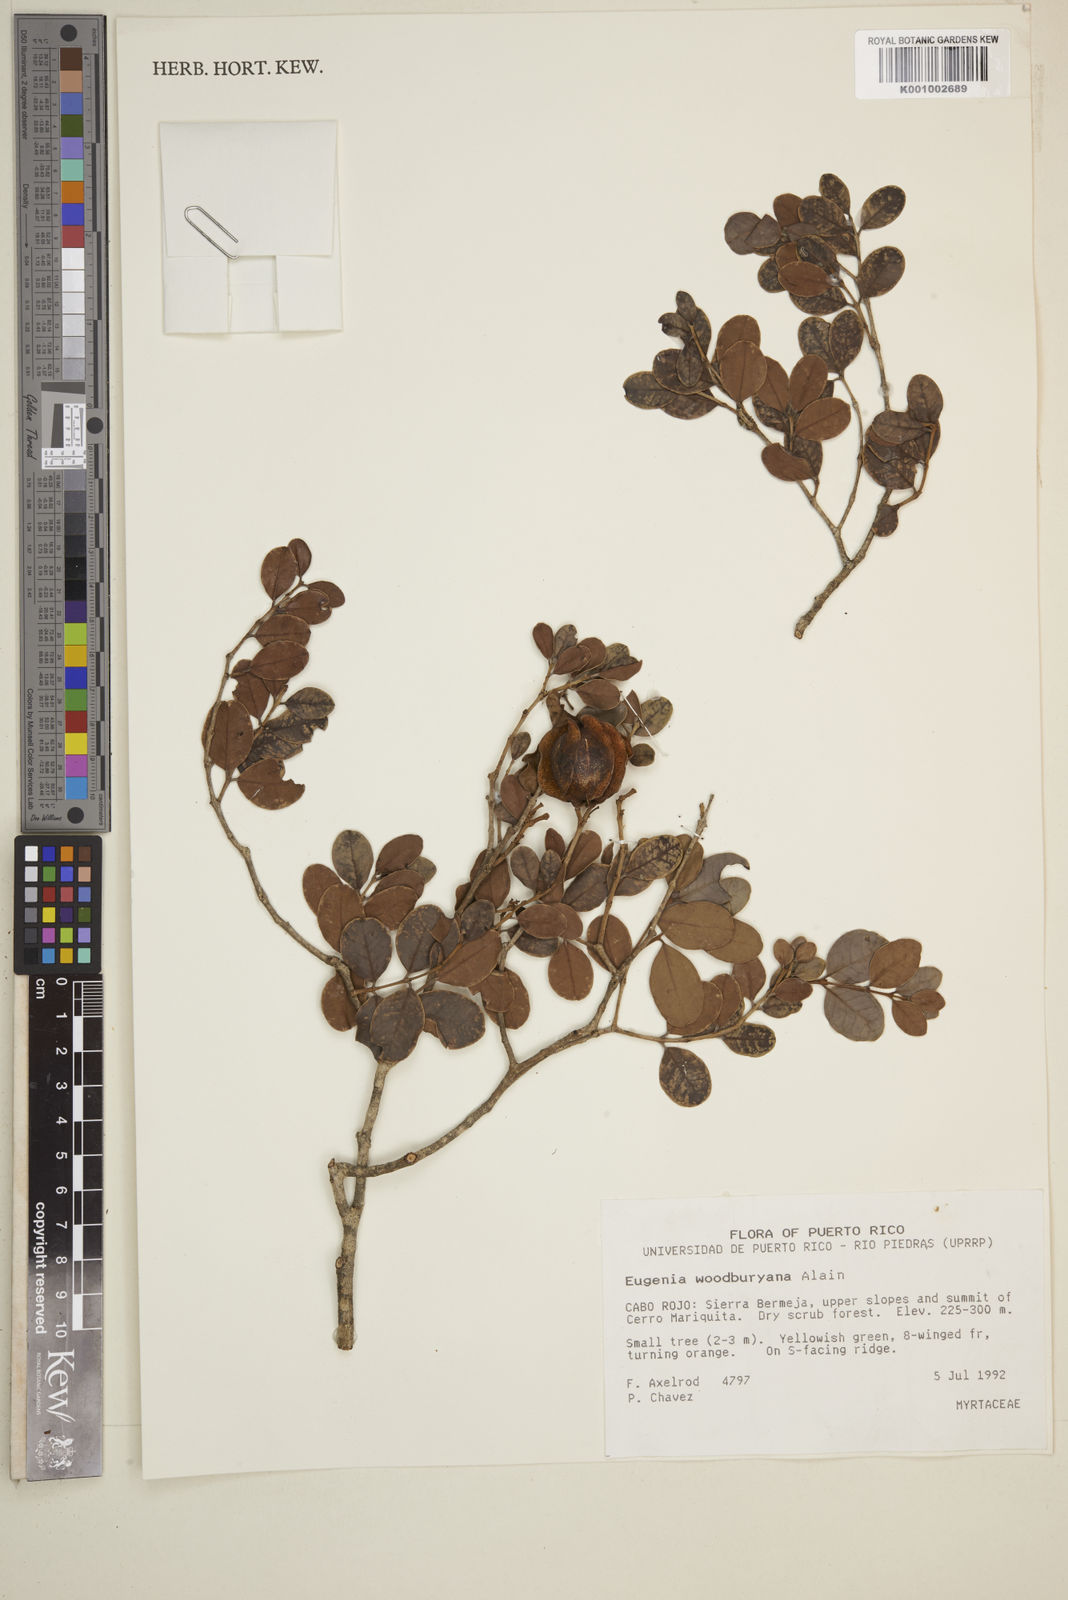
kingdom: Plantae
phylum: Tracheophyta
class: Magnoliopsida
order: Myrtales
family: Myrtaceae
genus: Eugenia
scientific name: Eugenia woodburyana
